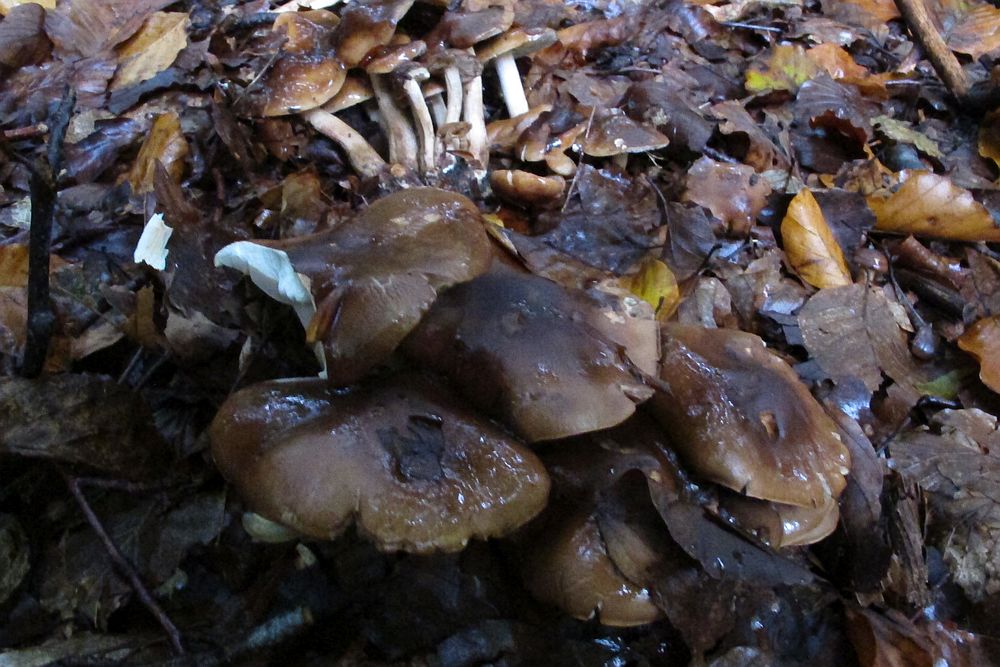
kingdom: Fungi
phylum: Basidiomycota
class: Agaricomycetes
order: Agaricales
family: Tricholomataceae
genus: Tricholoma
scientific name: Tricholoma ustale
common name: sveden ridderhat
